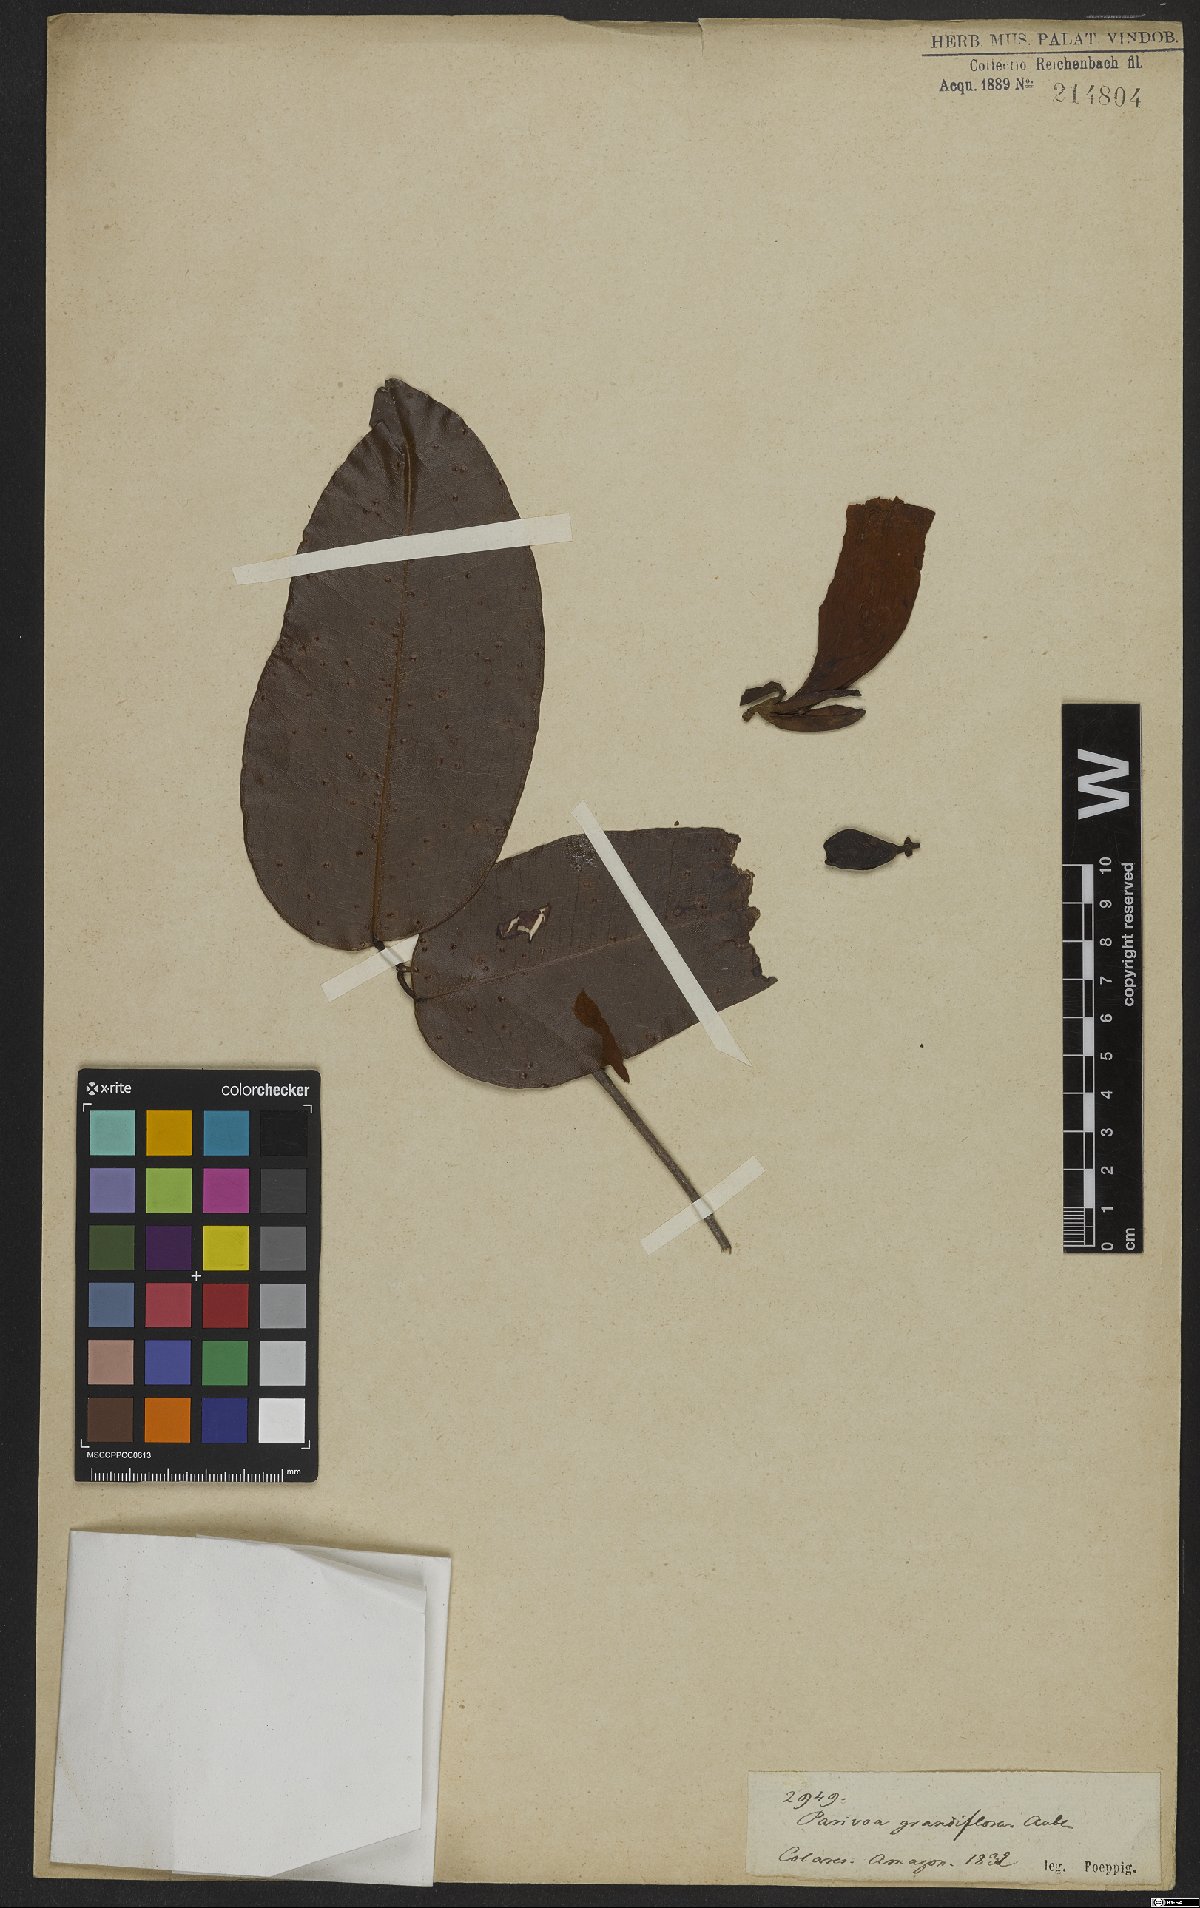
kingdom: Plantae
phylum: Tracheophyta
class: Magnoliopsida
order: Fabales
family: Fabaceae
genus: Eperua
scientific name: Eperua bijuga
